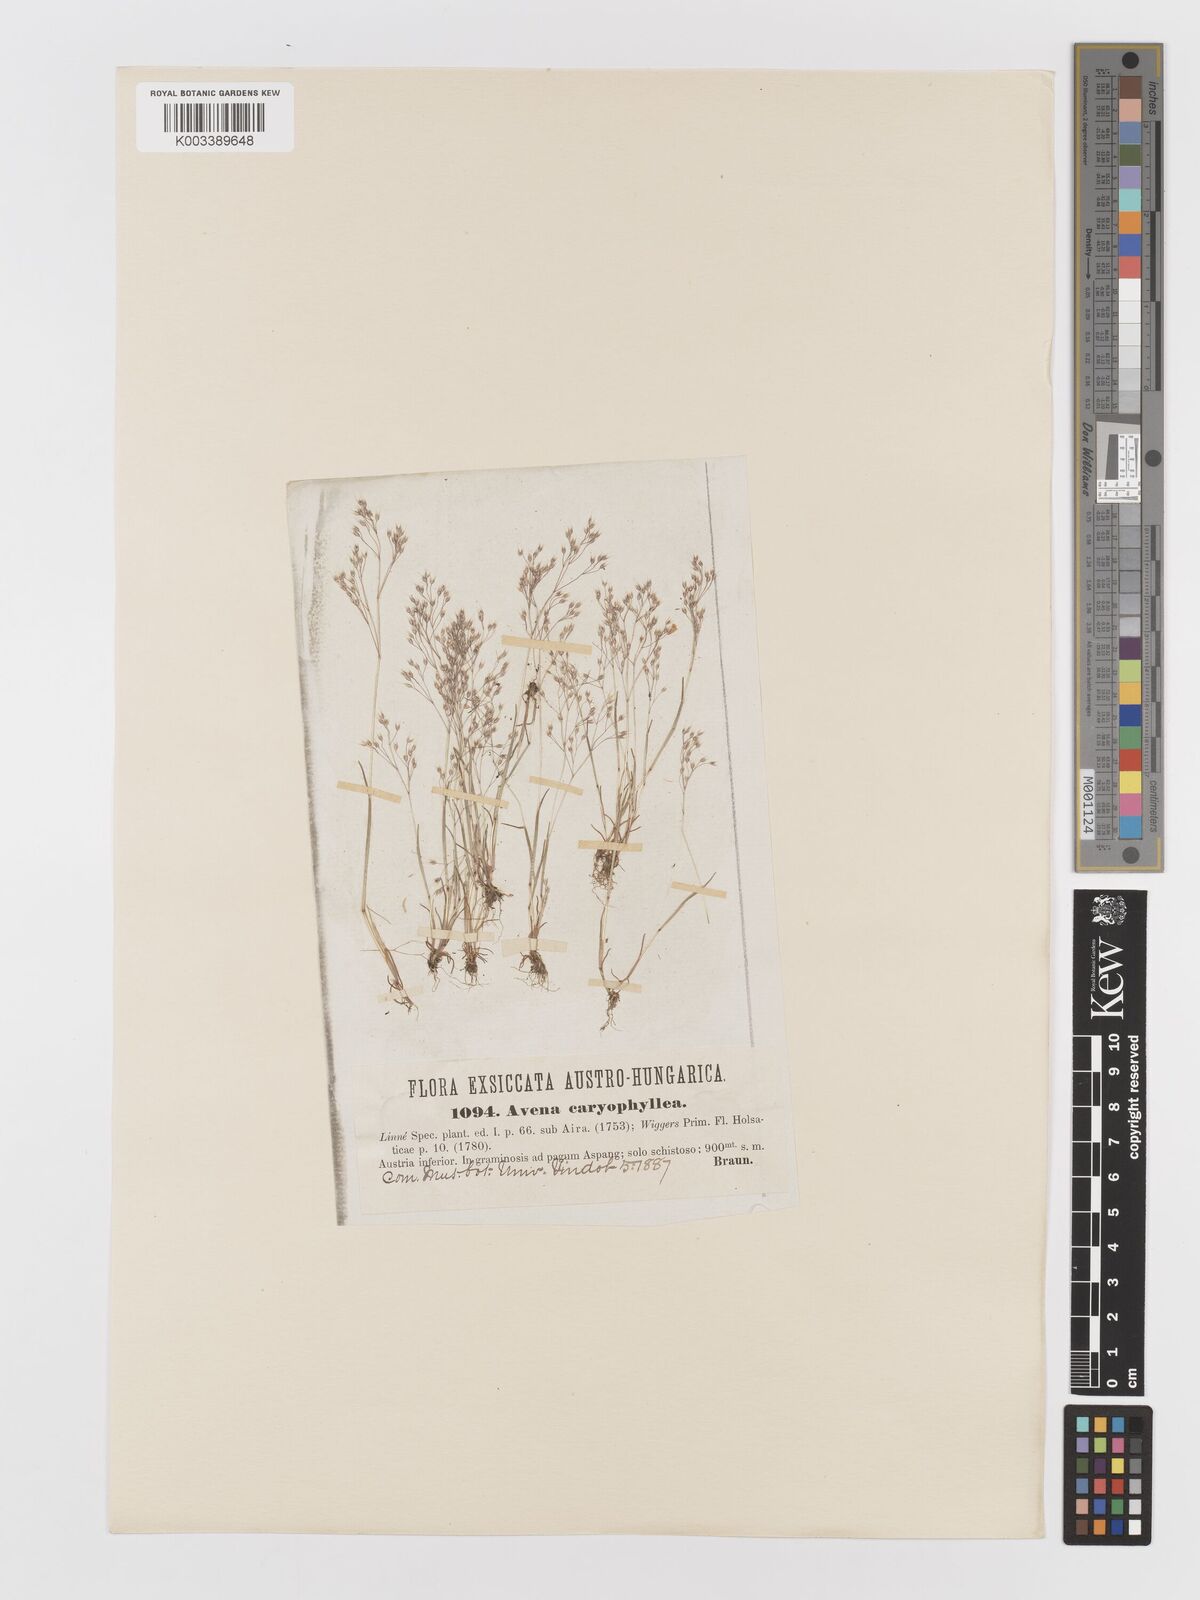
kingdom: Plantae
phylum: Tracheophyta
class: Liliopsida
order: Poales
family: Poaceae
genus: Aira
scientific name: Aira caryophyllea
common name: Silver hairgrass
